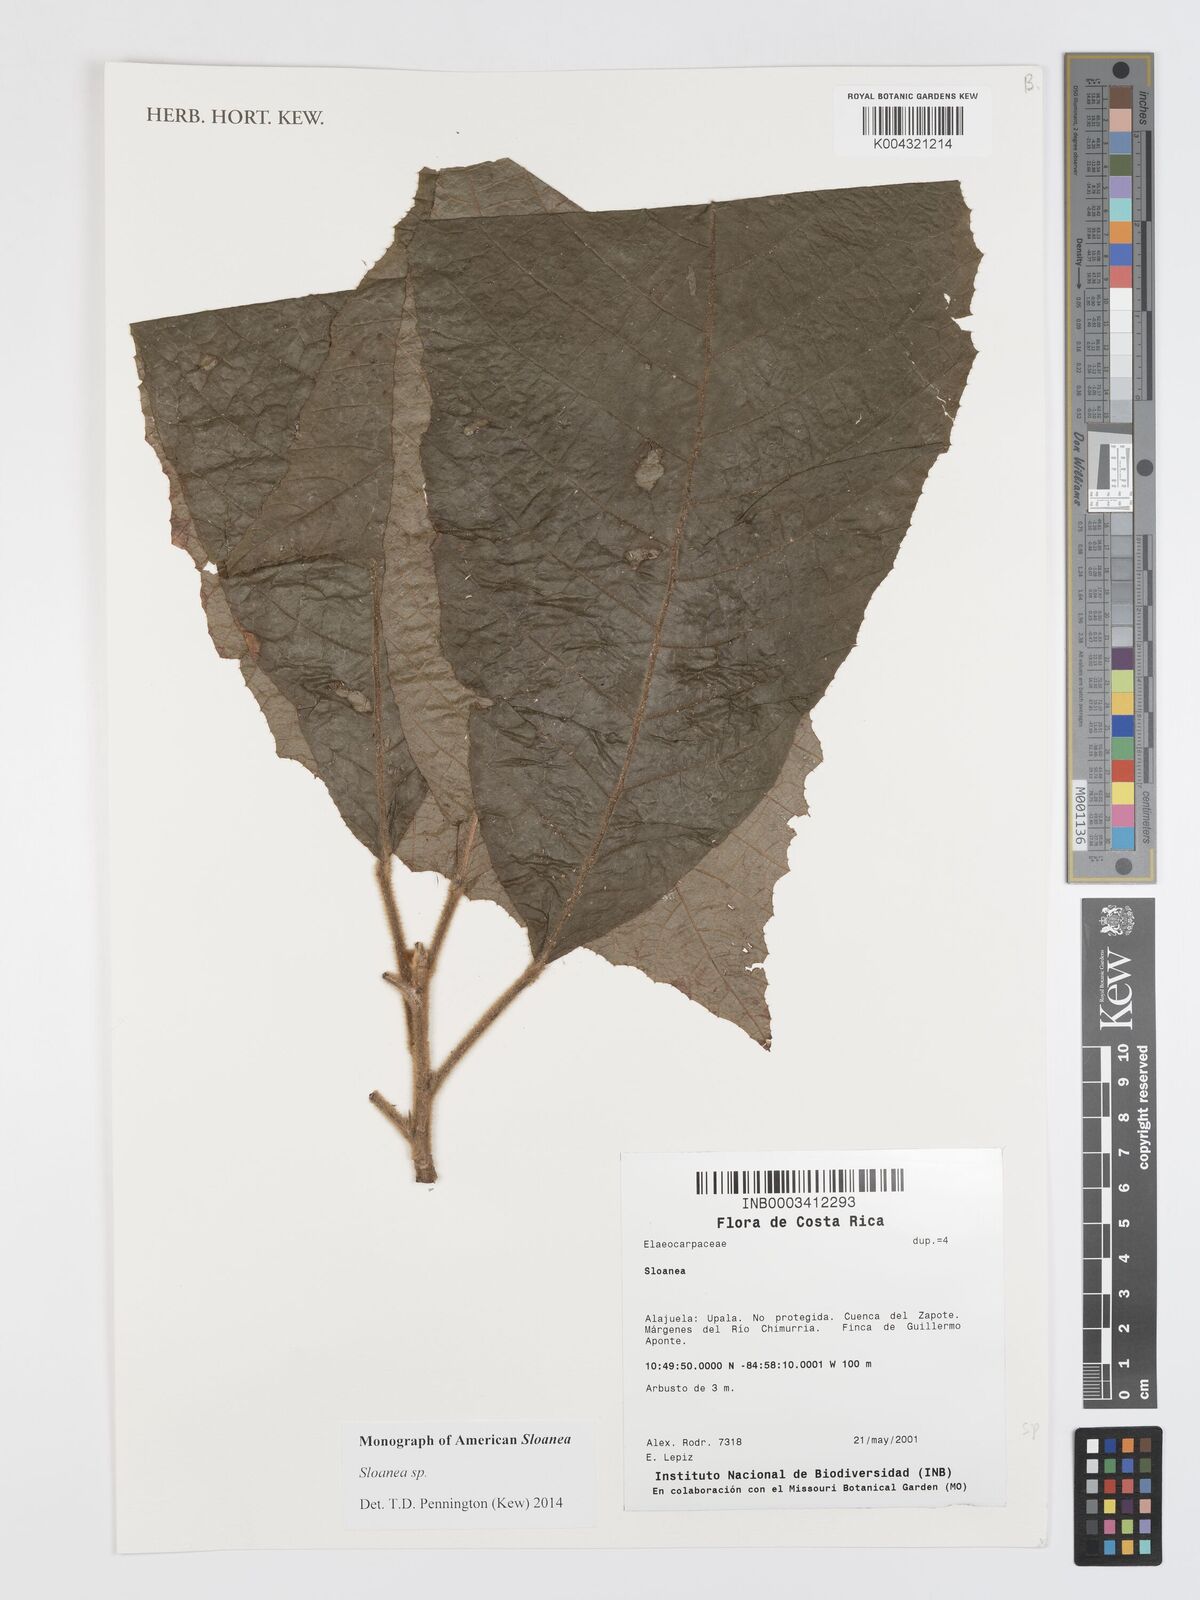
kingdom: Plantae
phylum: Tracheophyta
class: Magnoliopsida
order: Oxalidales
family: Elaeocarpaceae
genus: Sloanea
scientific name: Sloanea
